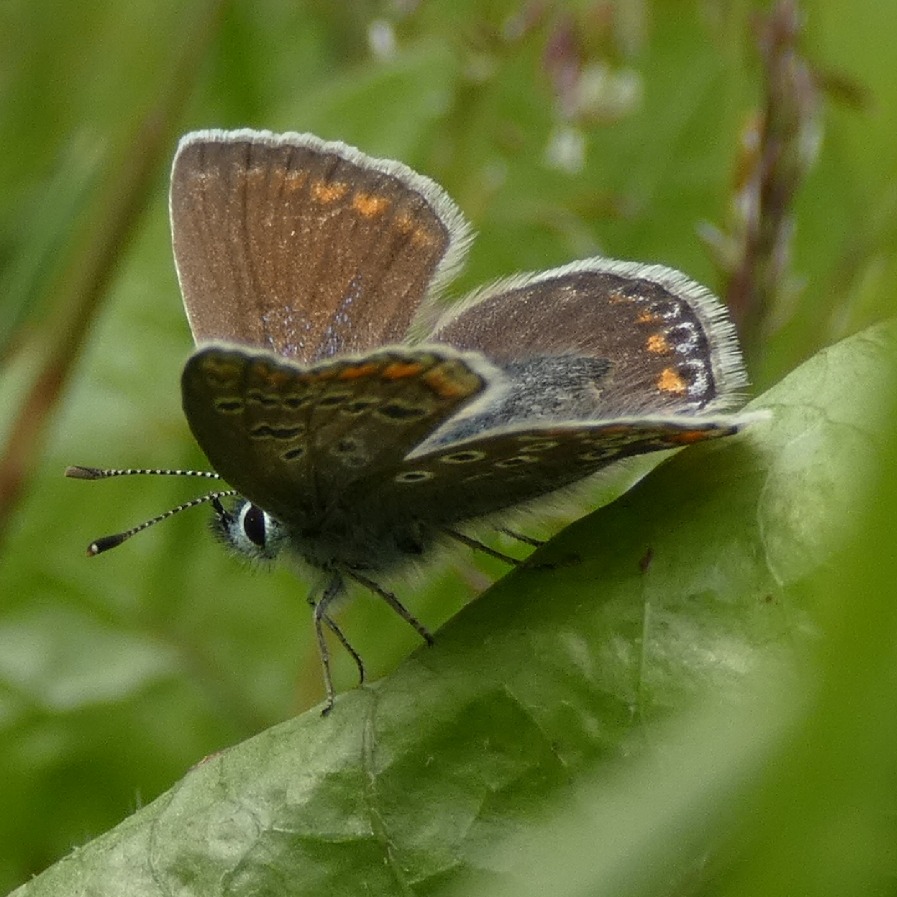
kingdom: Animalia
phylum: Arthropoda
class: Insecta
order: Lepidoptera
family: Lycaenidae
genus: Polyommatus
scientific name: Polyommatus icarus
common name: Almindelig blåfugl
